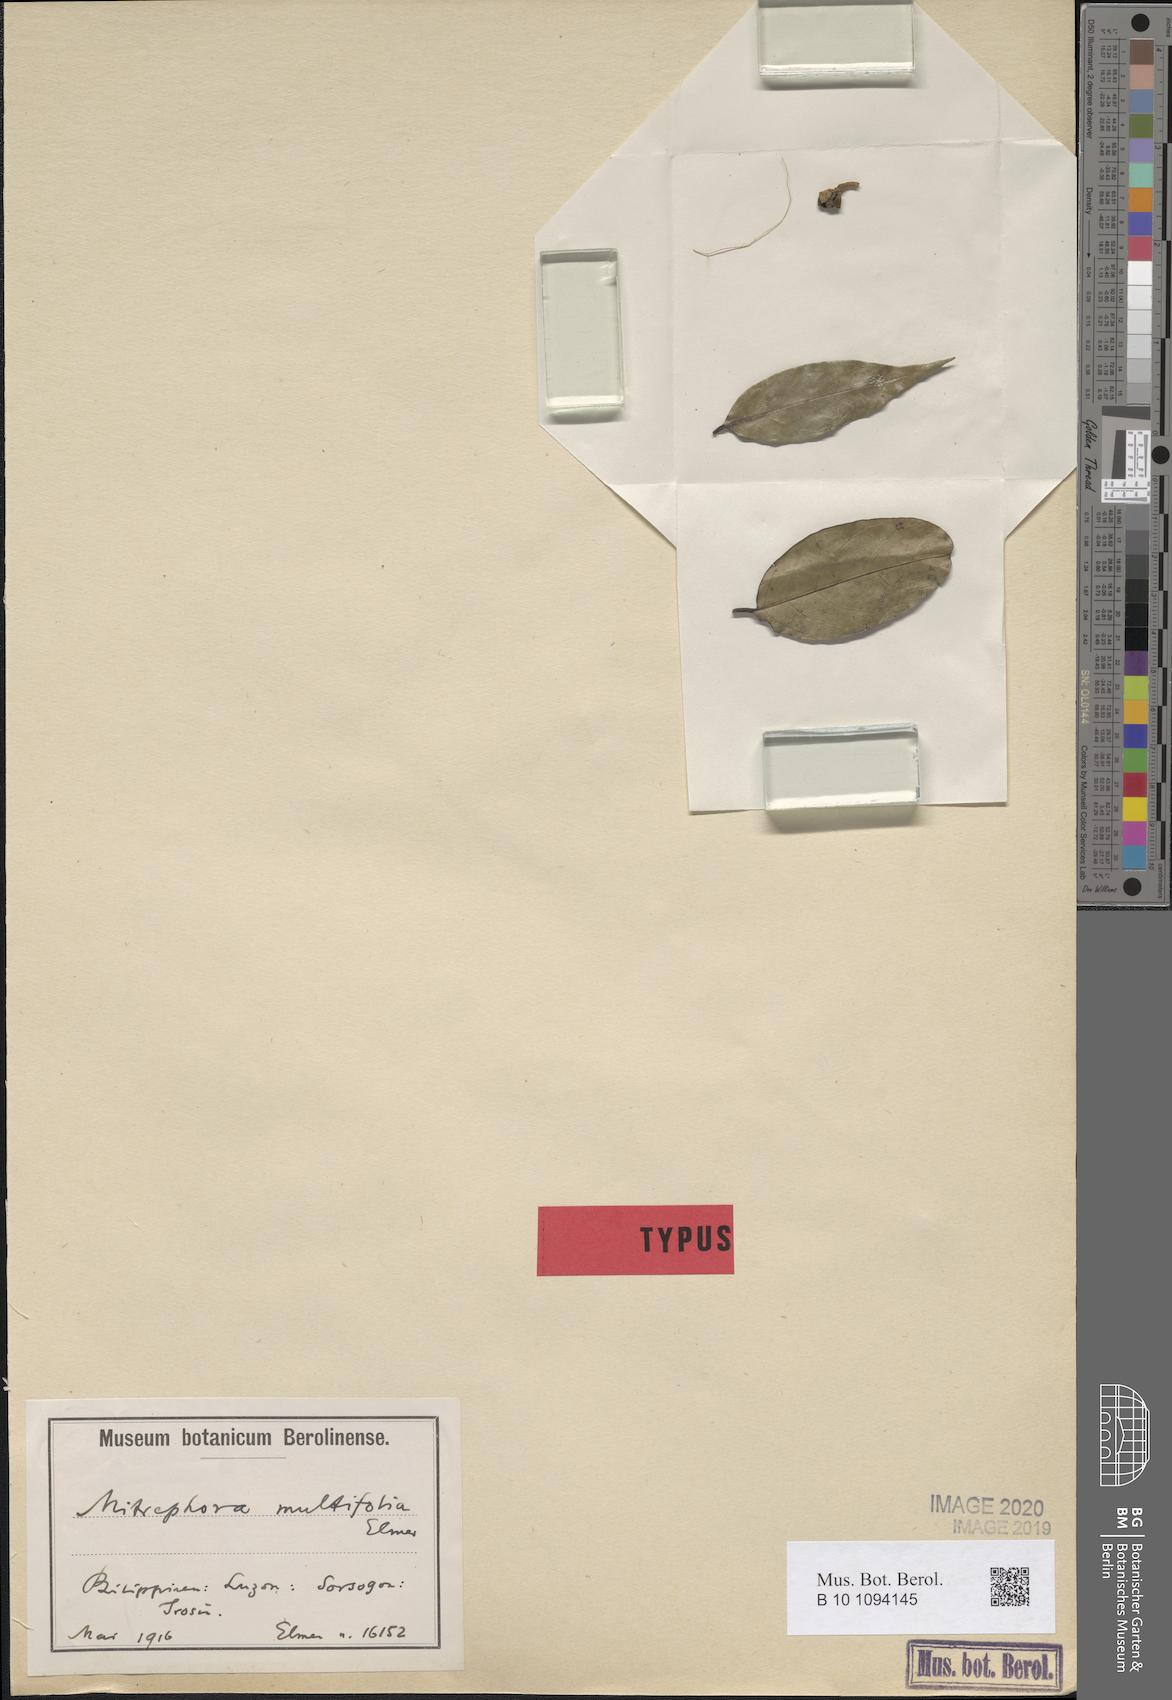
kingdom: Plantae
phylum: Tracheophyta
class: Magnoliopsida
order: Magnoliales
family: Annonaceae
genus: Mitrephora
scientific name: Mitrephora multifolia
